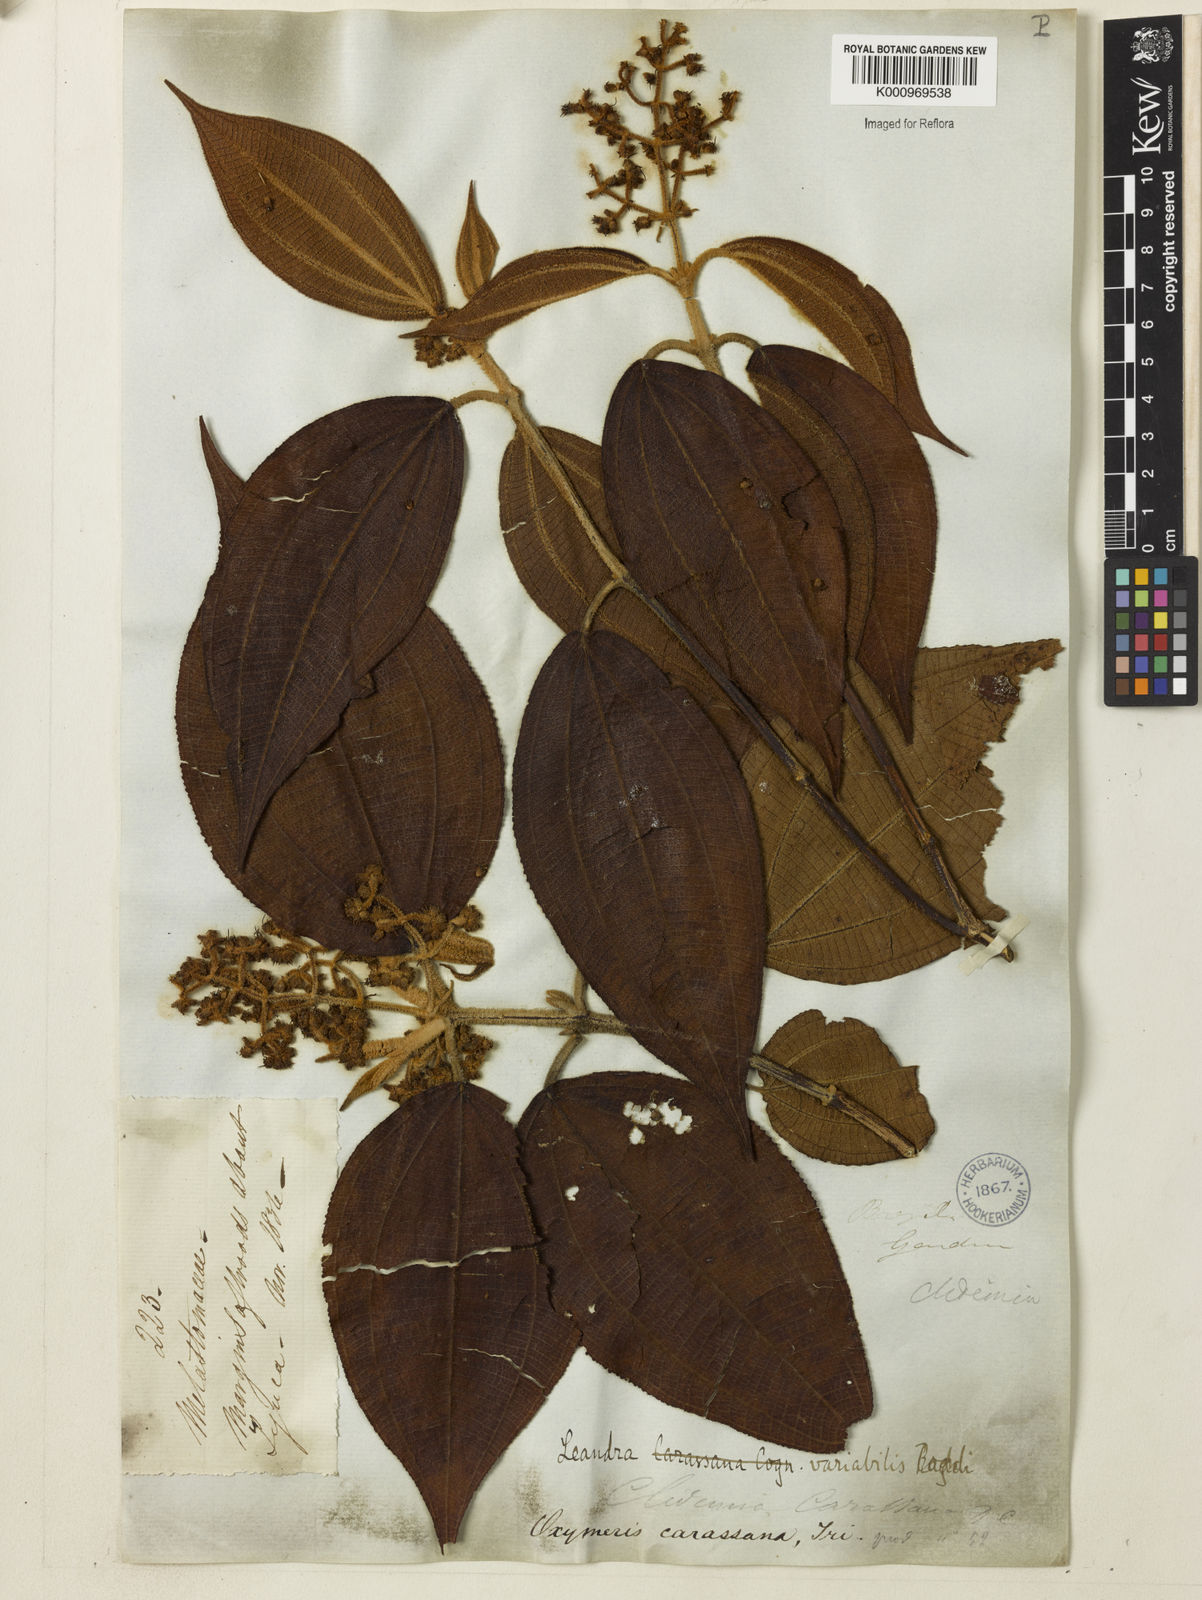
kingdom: Plantae
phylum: Tracheophyta
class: Magnoliopsida
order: Myrtales
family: Melastomataceae
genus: Miconia
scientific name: Miconia dasytricha
